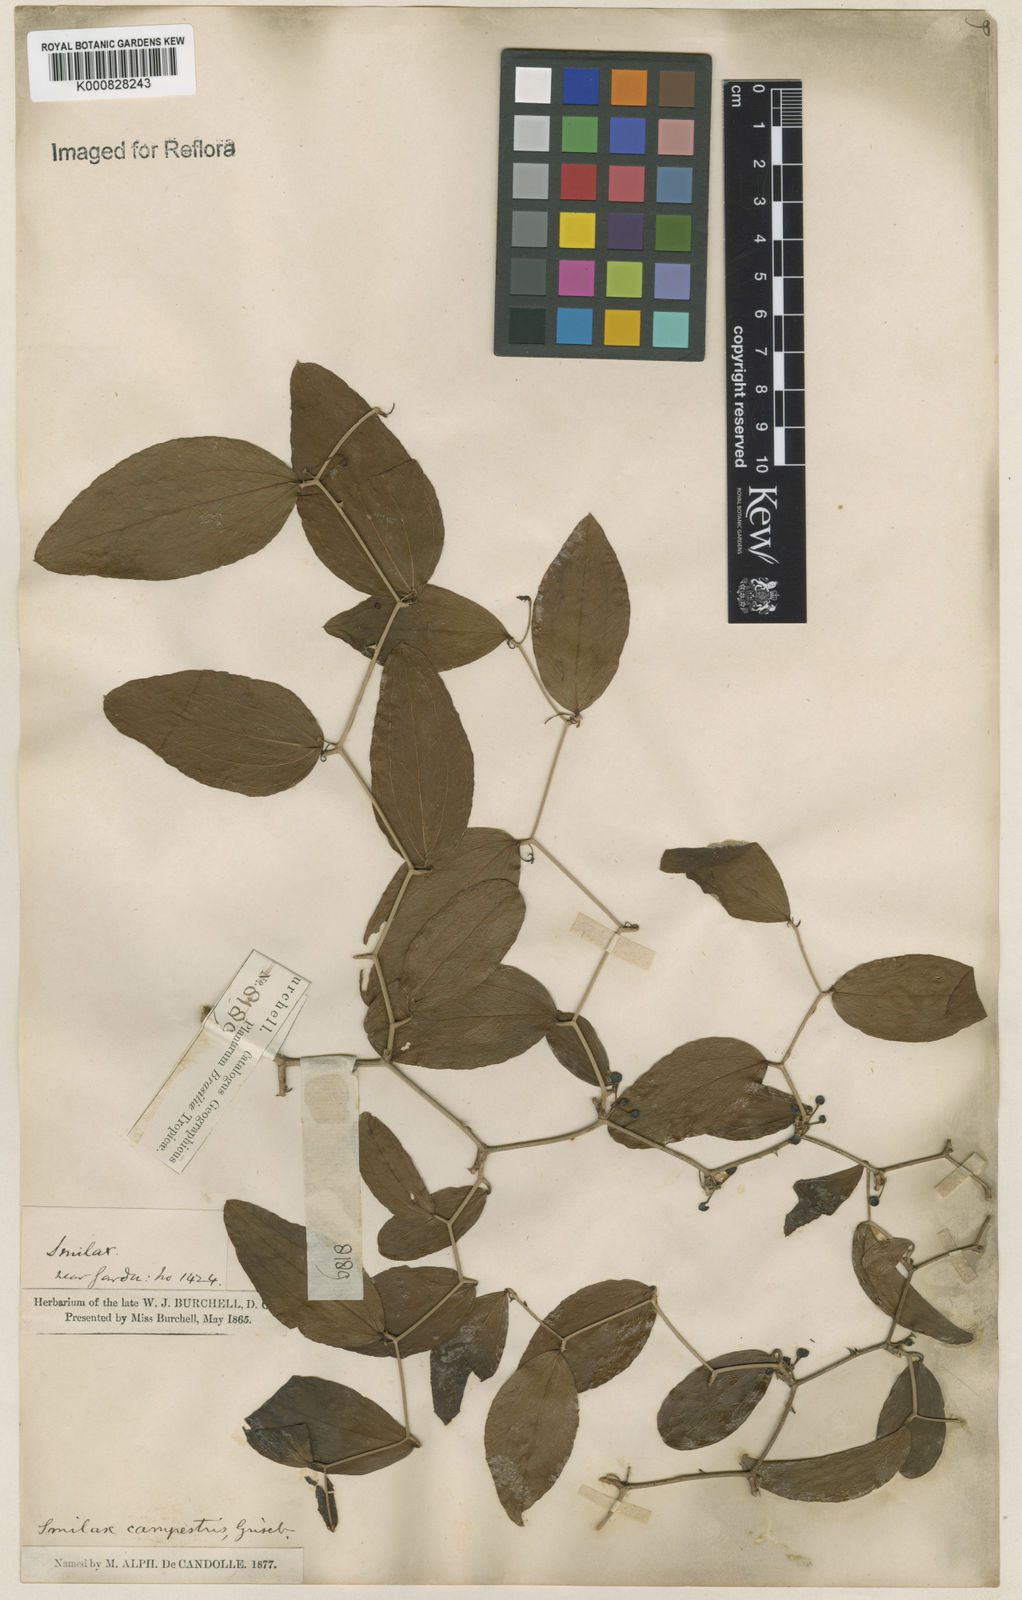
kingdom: Plantae
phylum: Tracheophyta
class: Liliopsida
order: Liliales
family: Smilacaceae
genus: Smilax
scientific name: Smilax campestris
